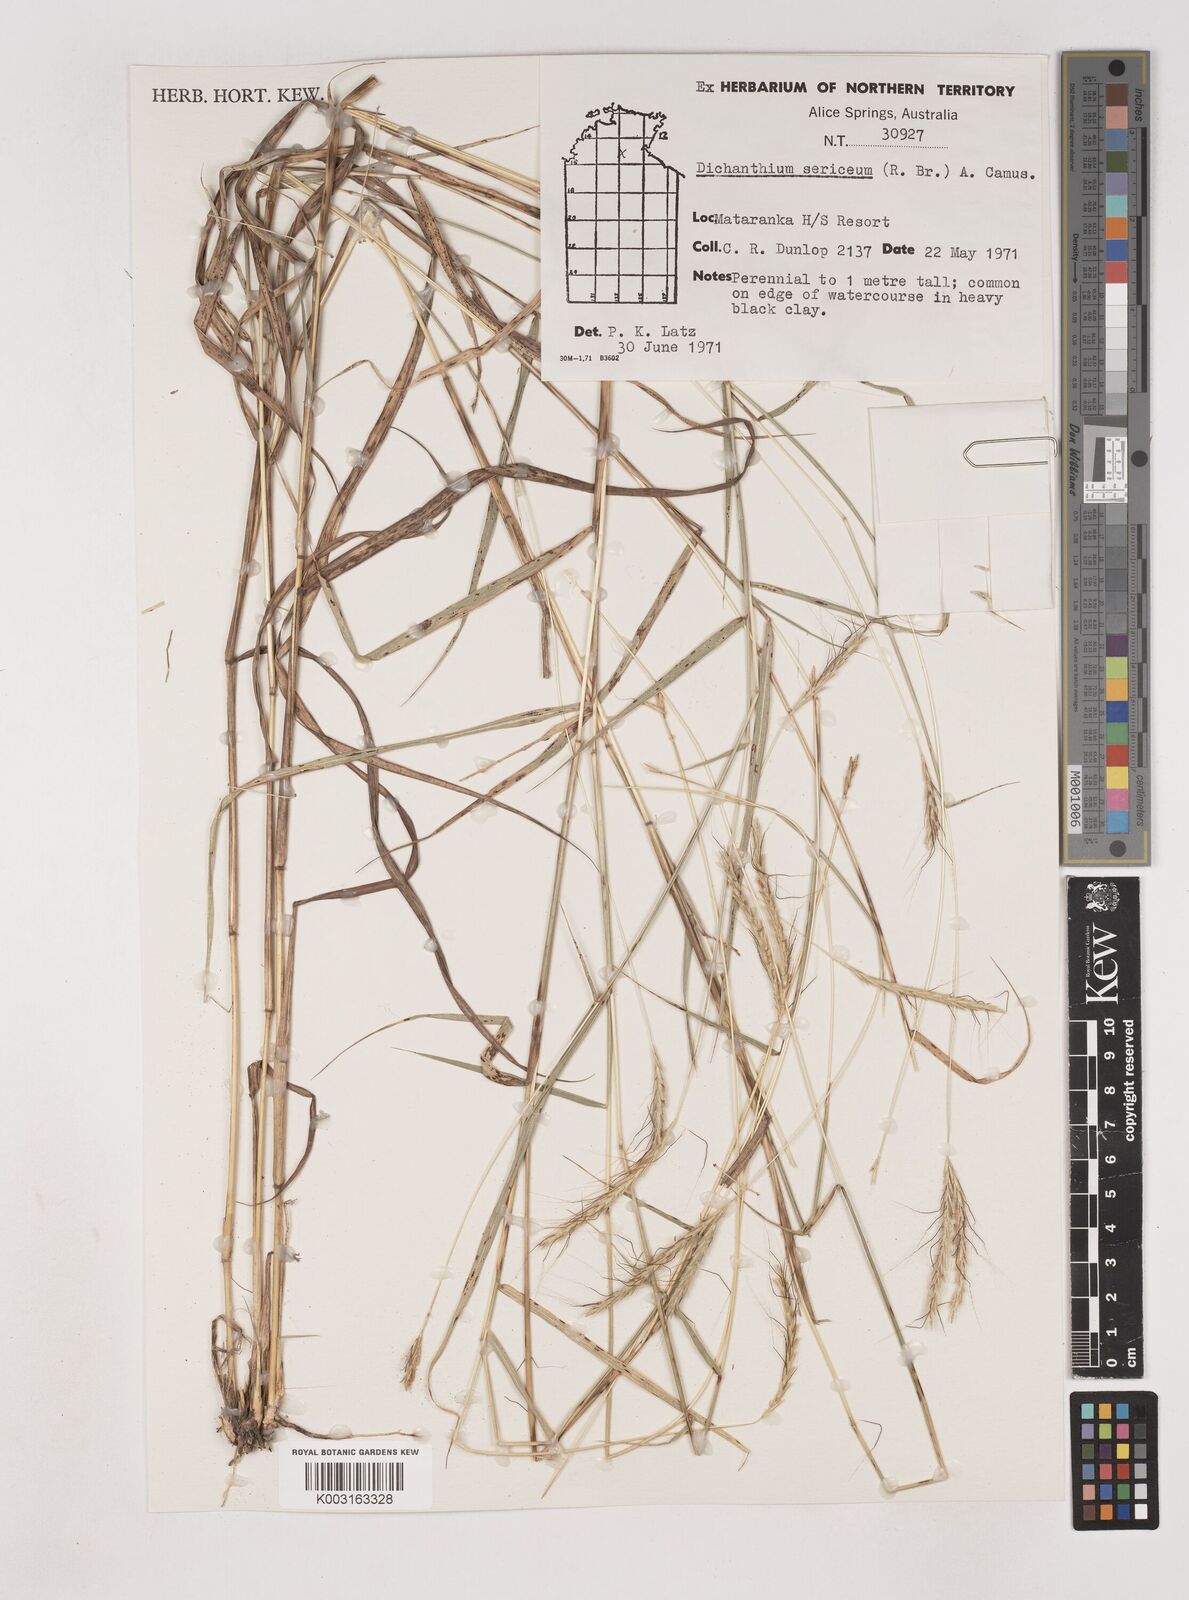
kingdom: Plantae
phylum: Tracheophyta
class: Liliopsida
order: Poales
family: Poaceae
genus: Dichanthium
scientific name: Dichanthium sericeum
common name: Silky bluestem
